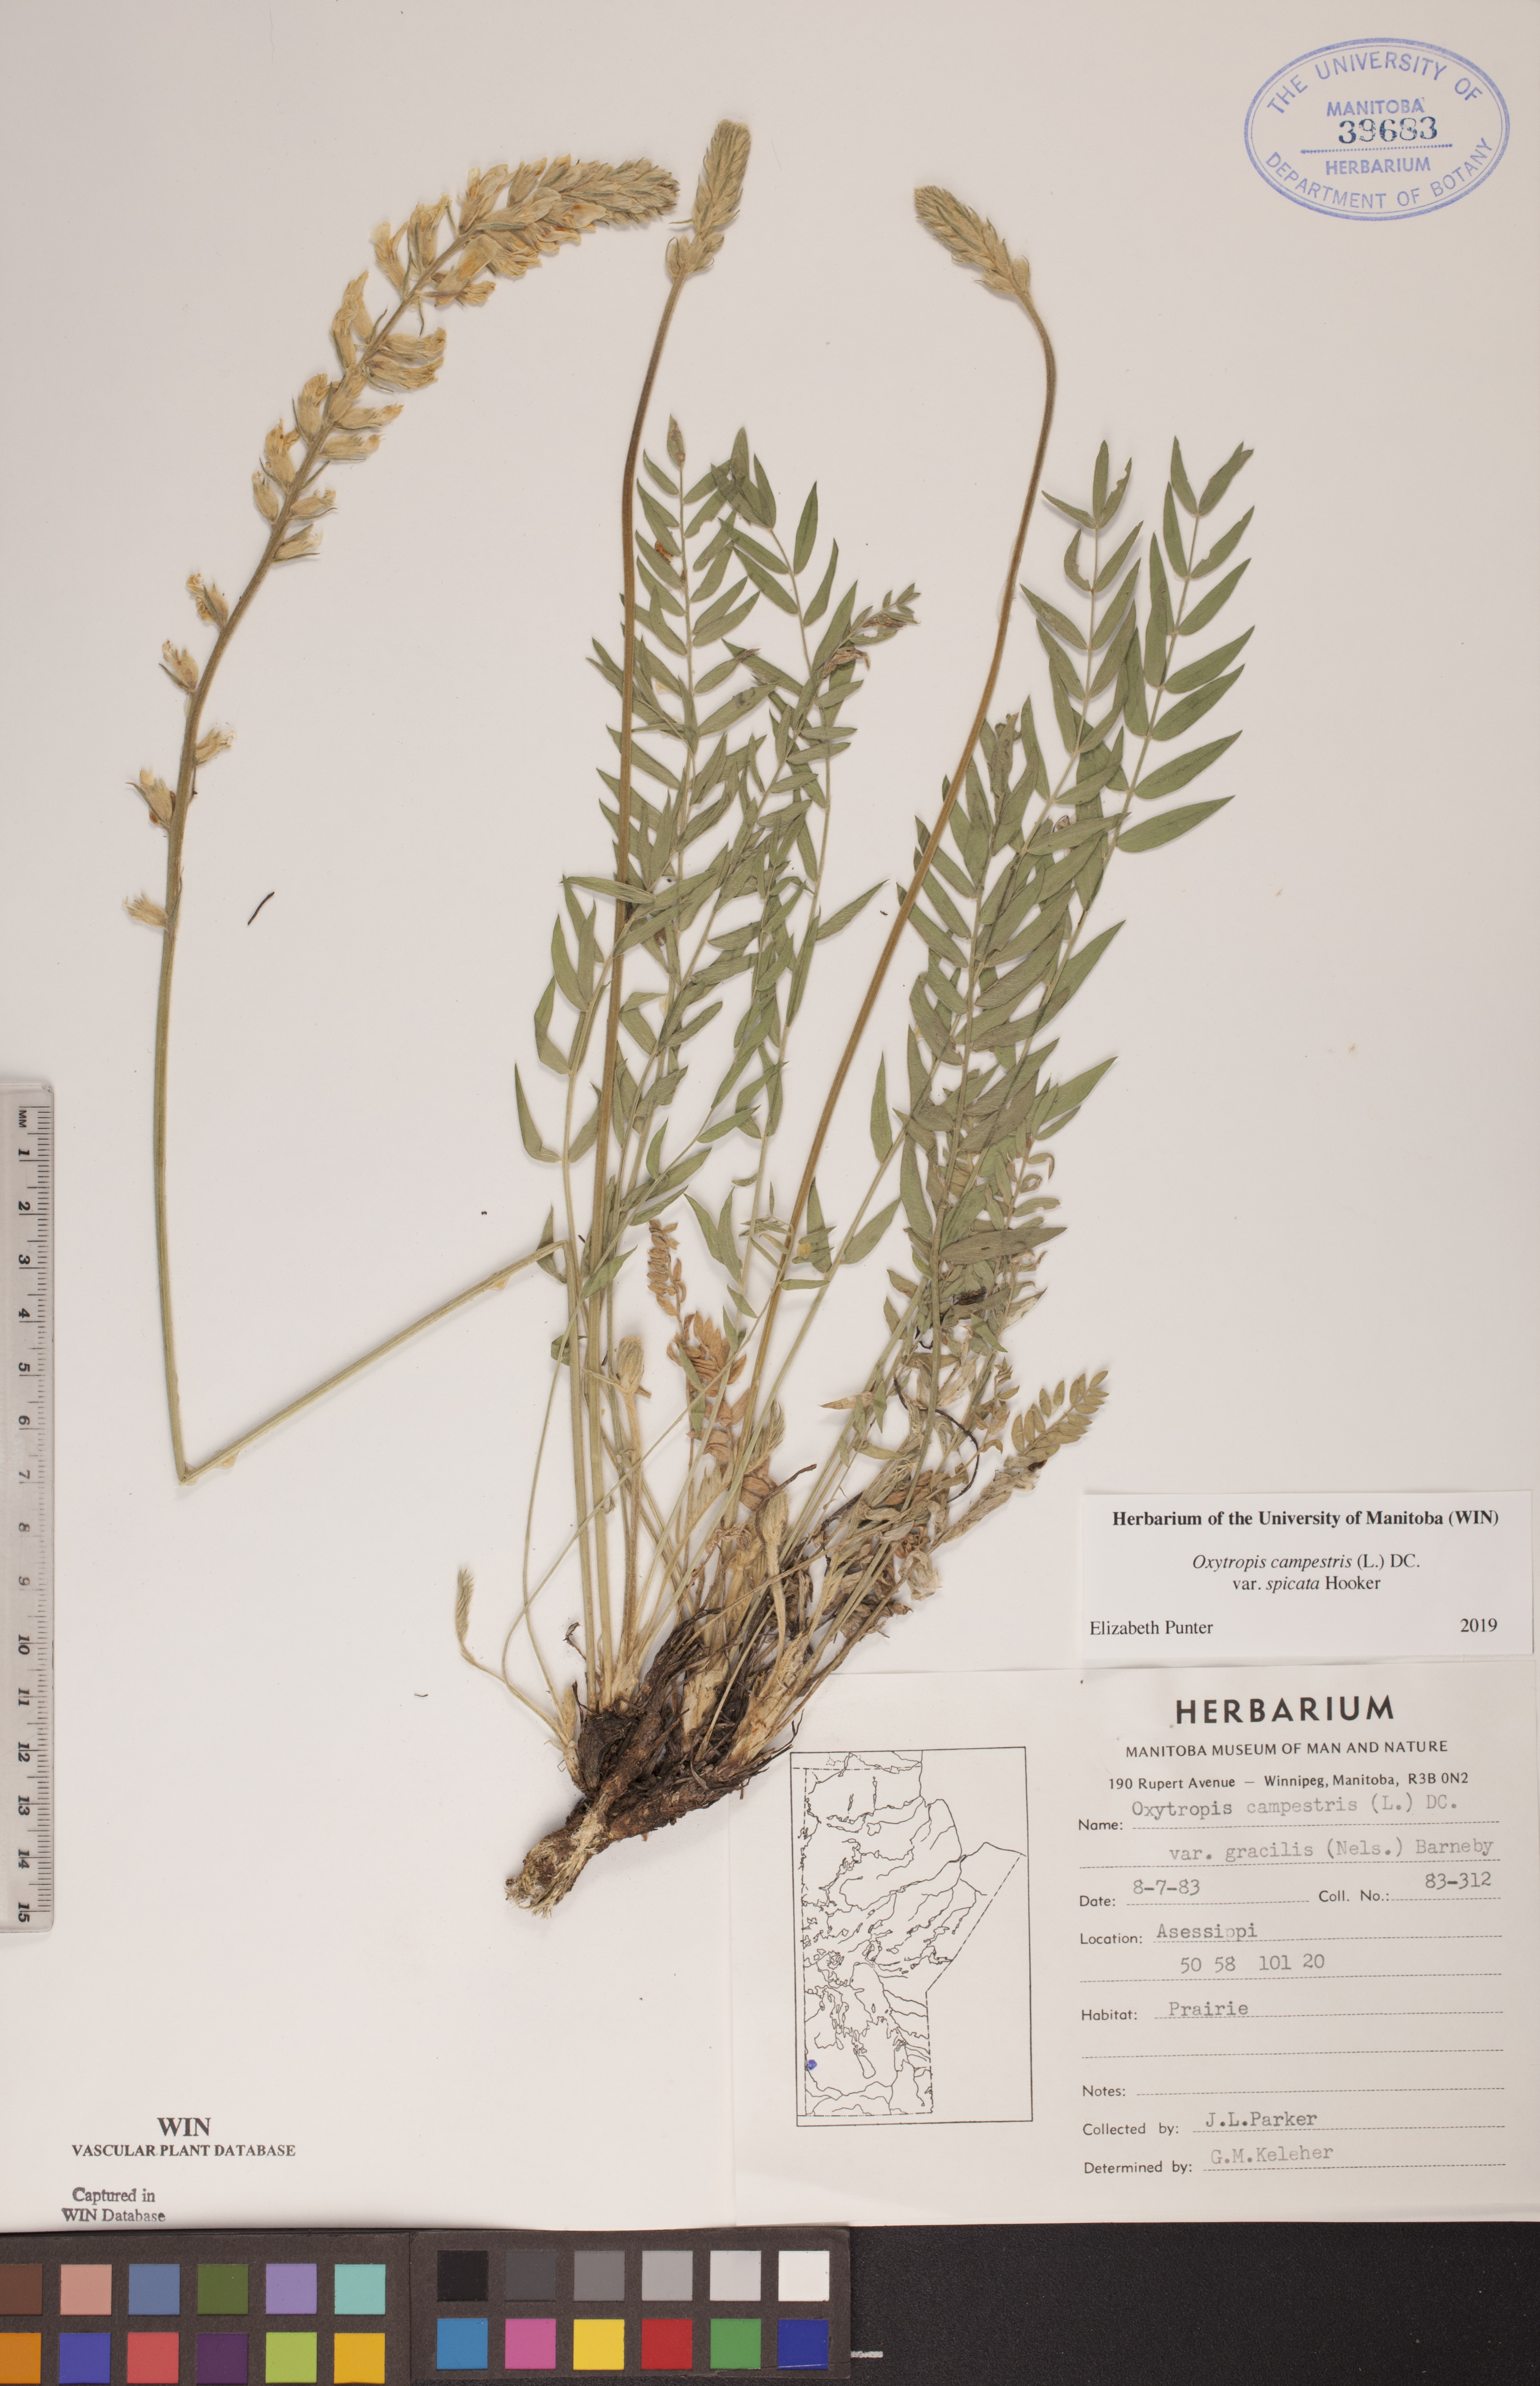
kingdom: Plantae
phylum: Tracheophyta
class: Magnoliopsida
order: Fabales
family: Fabaceae
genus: Oxytropis
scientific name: Oxytropis campestris
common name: Field locoweed
